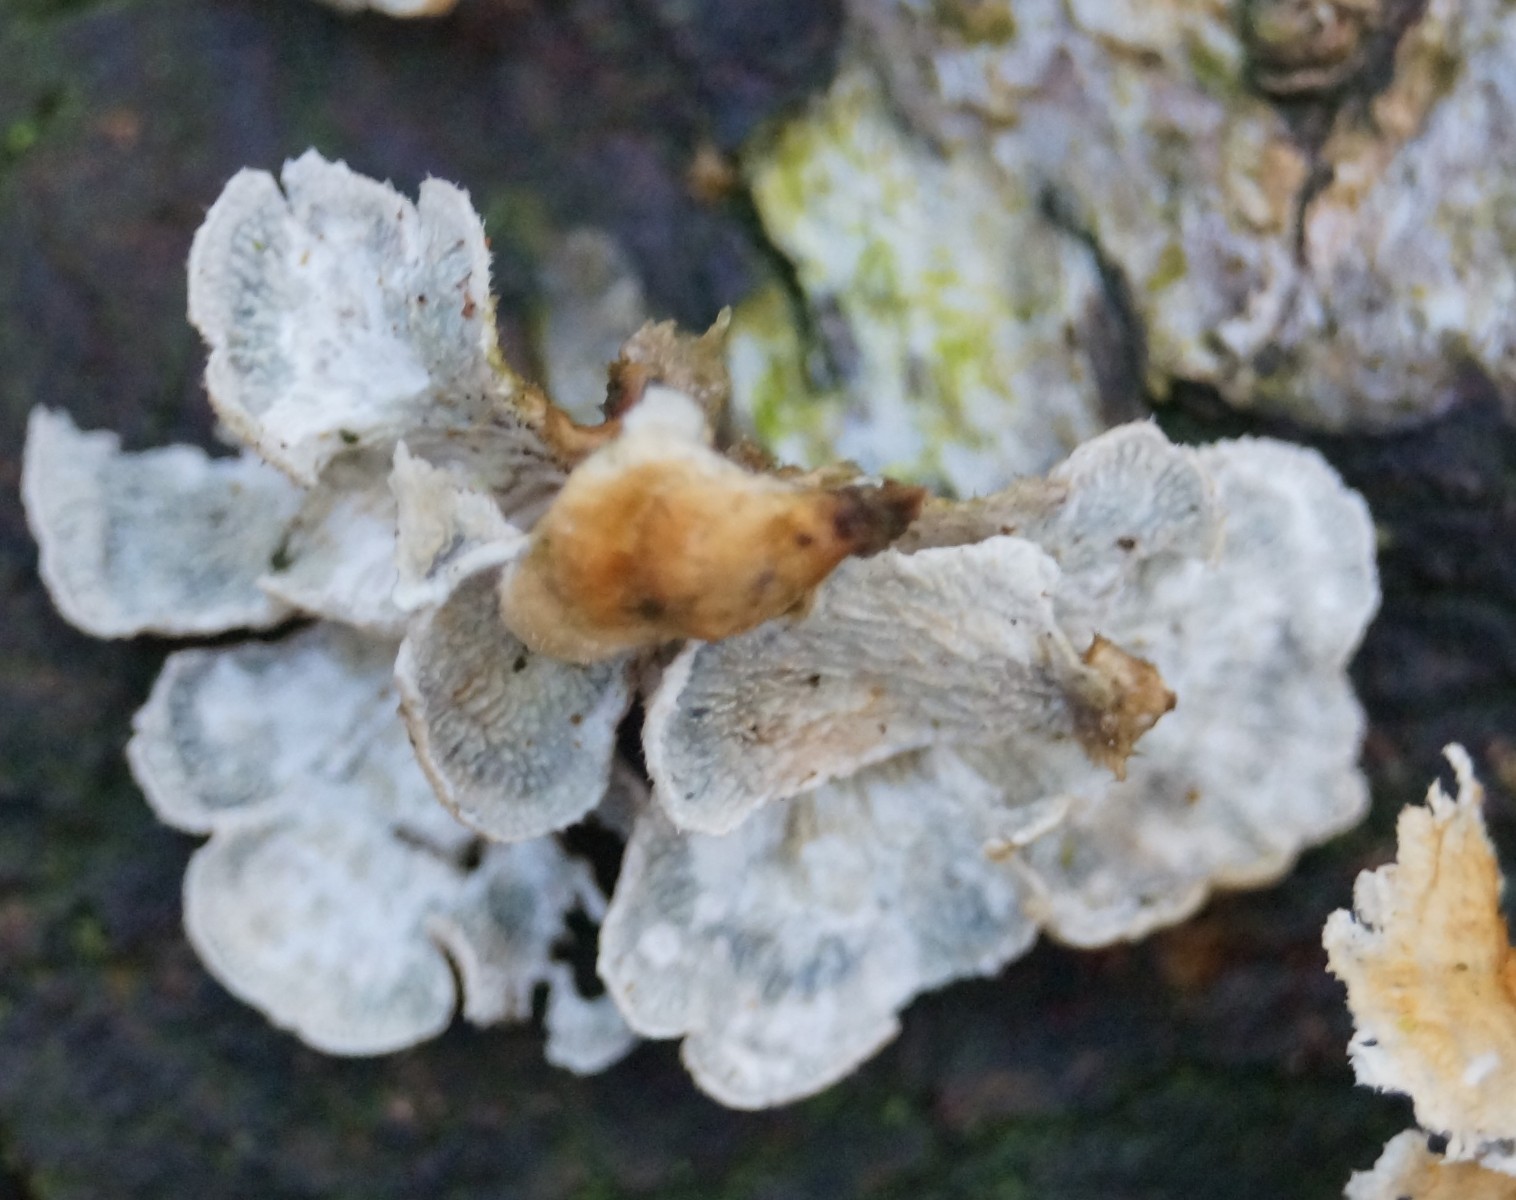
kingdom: Fungi
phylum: Basidiomycota
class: Agaricomycetes
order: Amylocorticiales
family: Amylocorticiaceae
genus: Plicaturopsis
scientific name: Plicaturopsis crispa
